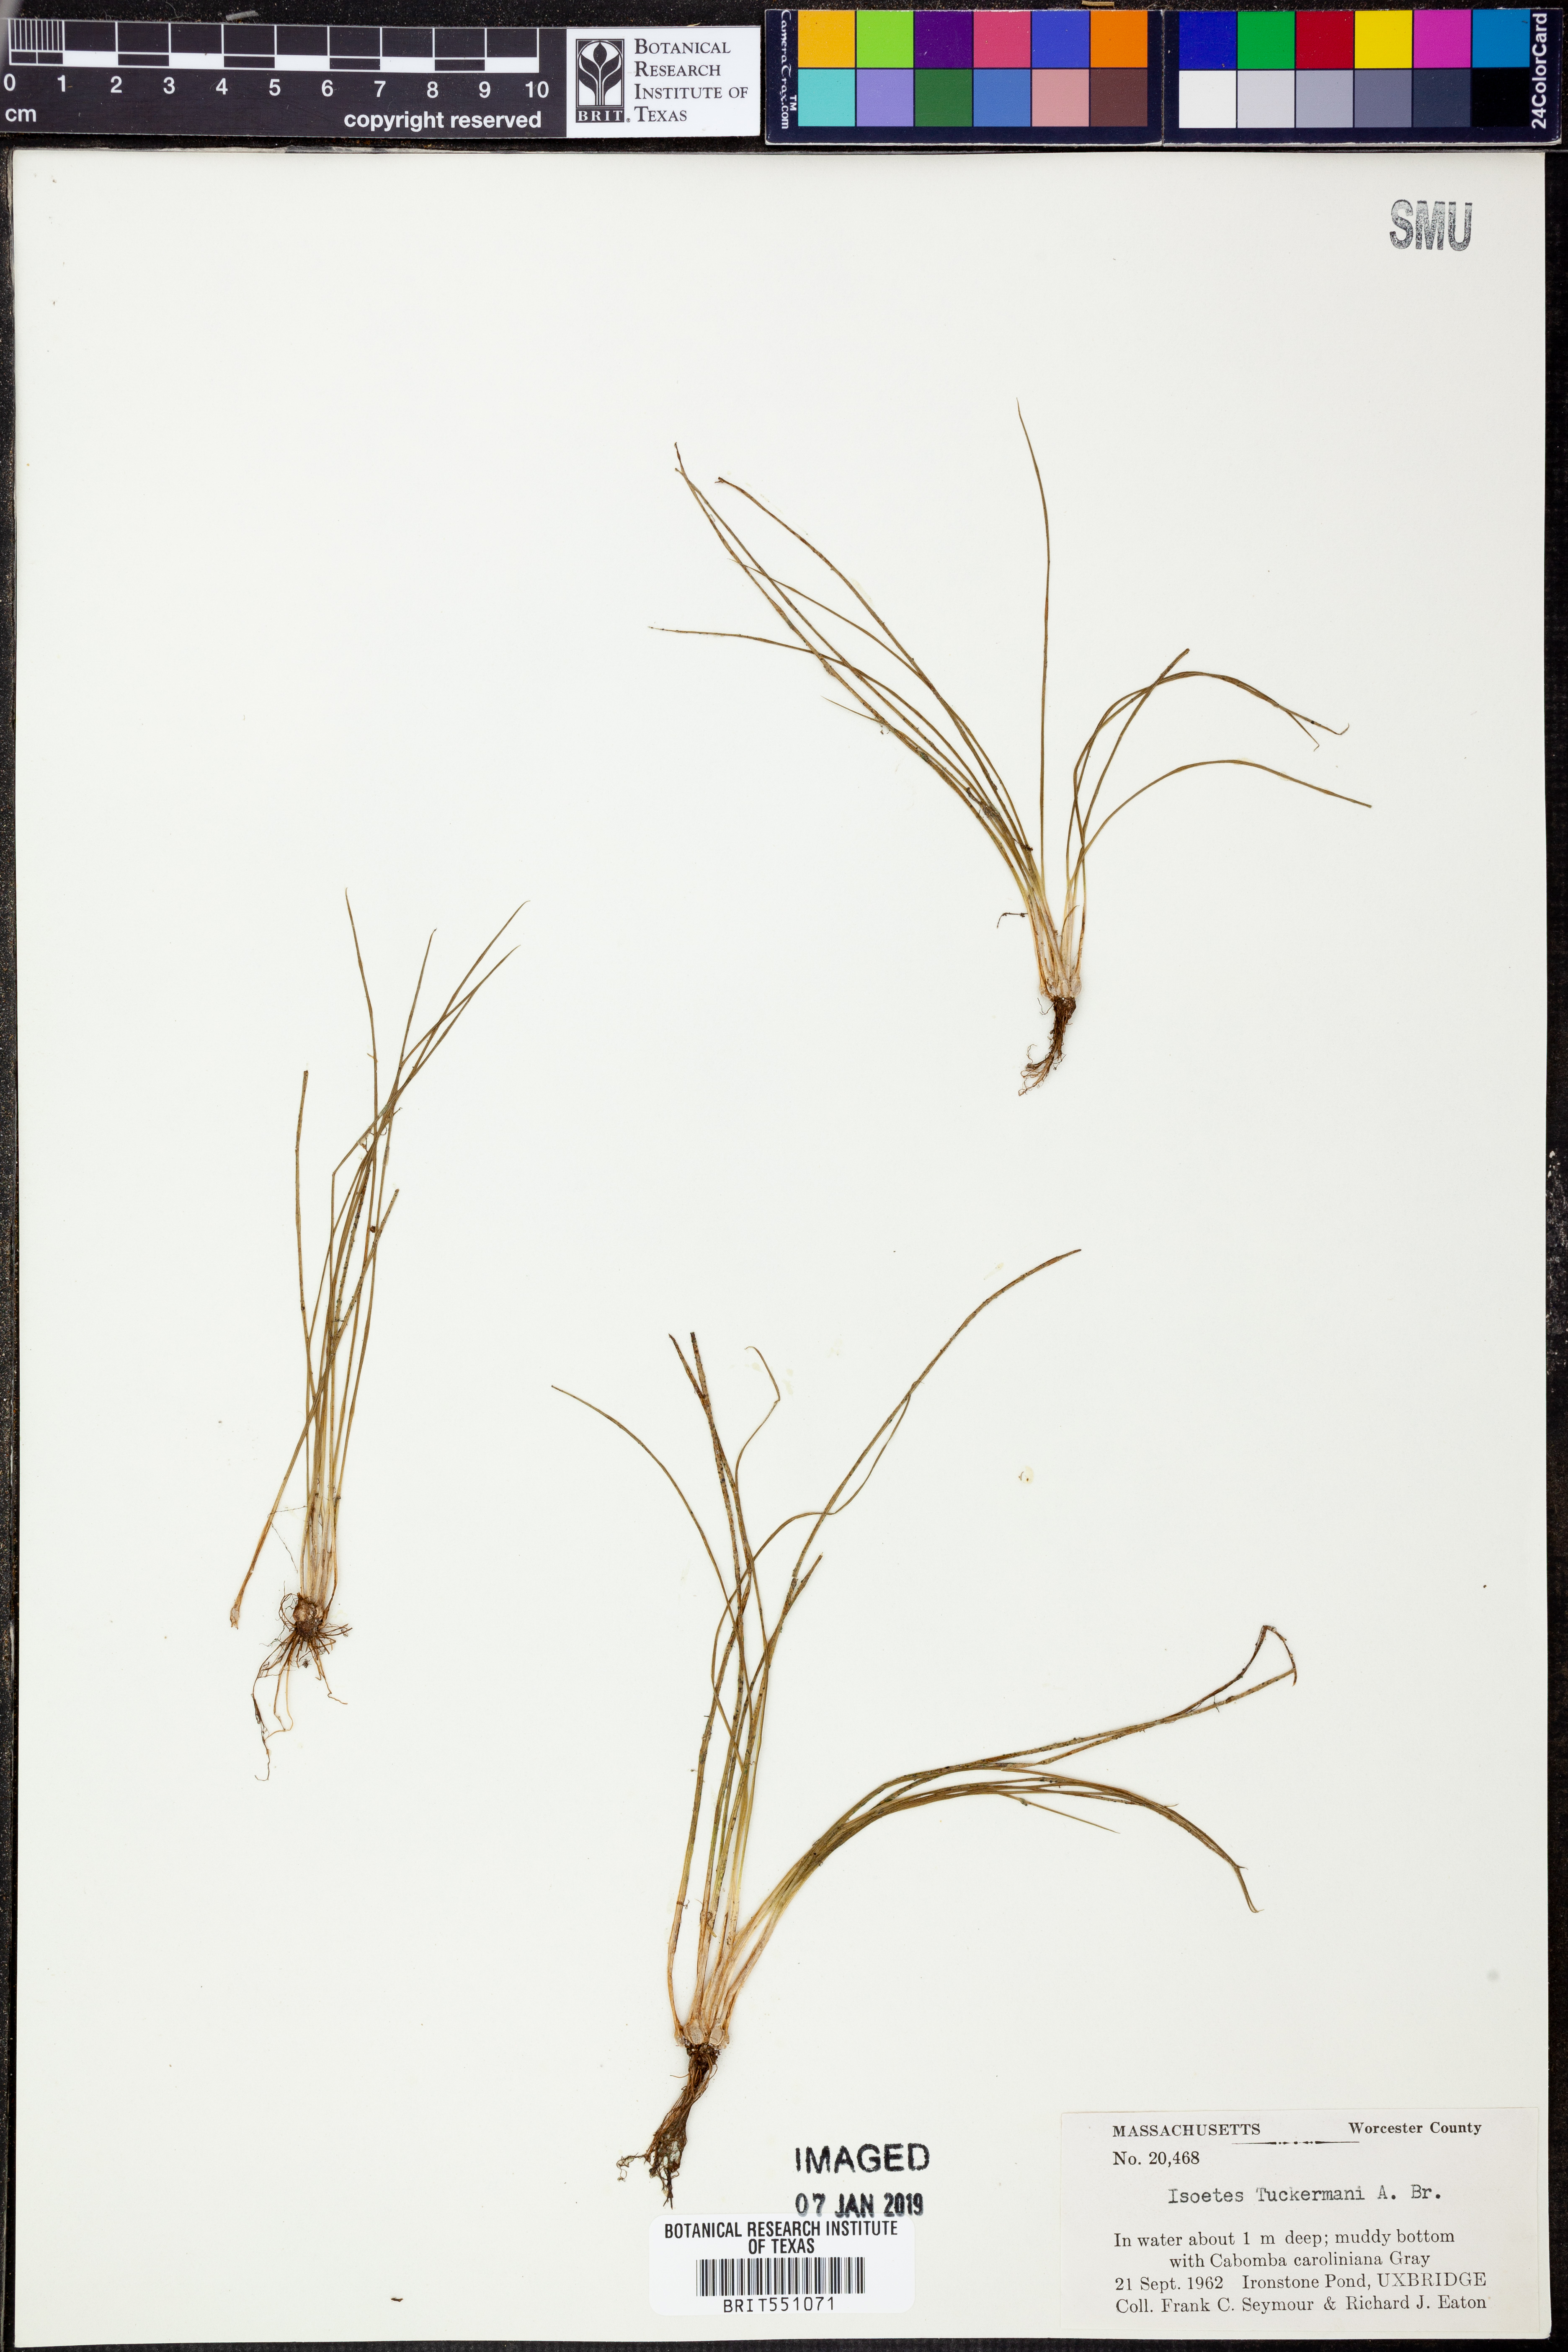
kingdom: Plantae
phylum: Tracheophyta
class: Lycopodiopsida
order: Isoetales
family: Isoetaceae
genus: Isoetes
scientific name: Isoetes tuckermanii
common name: Tuckerman's quillwort
